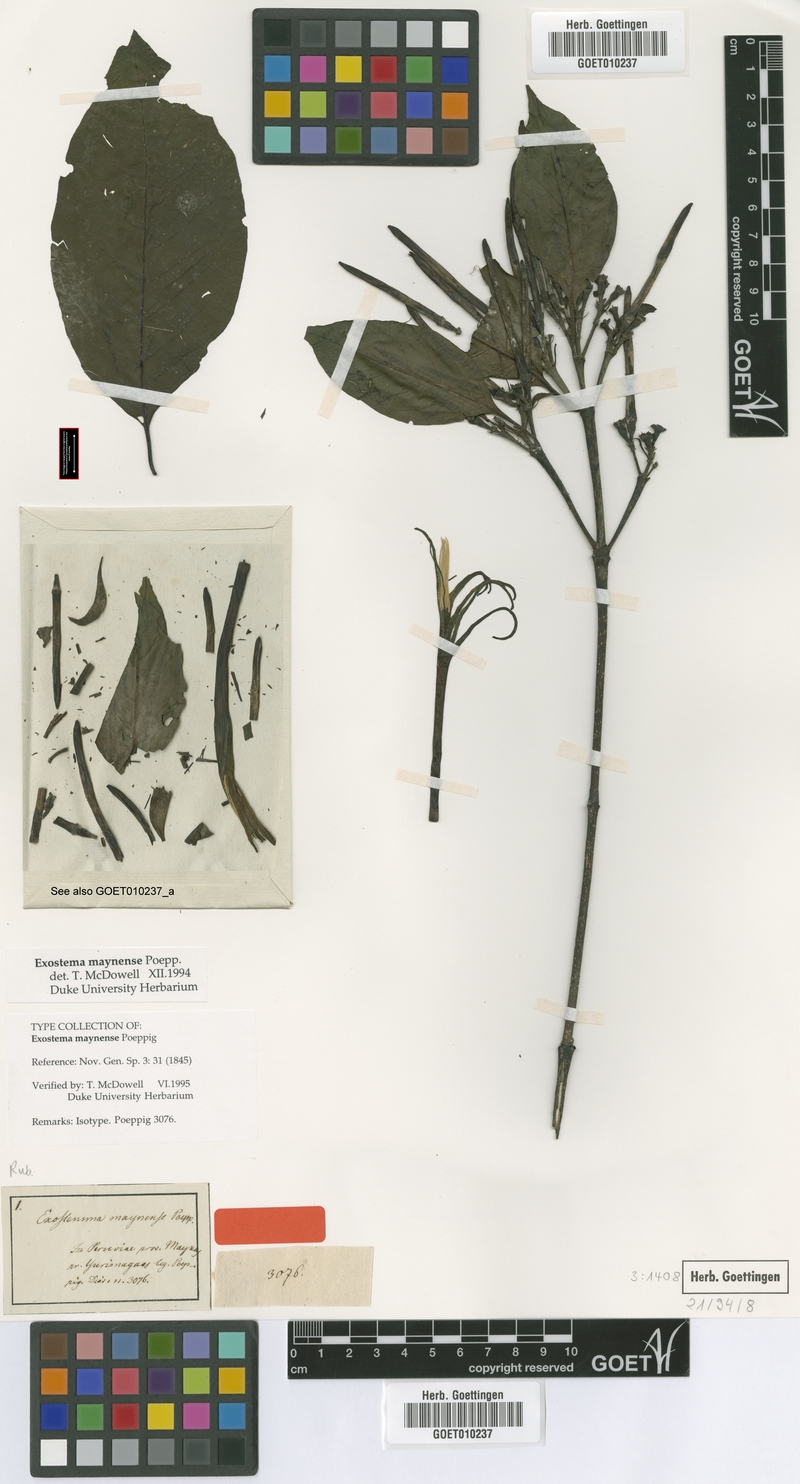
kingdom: Plantae
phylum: Tracheophyta
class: Magnoliopsida
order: Gentianales
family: Rubiaceae
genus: Adolphoduckea
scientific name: Adolphoduckea maynensis
